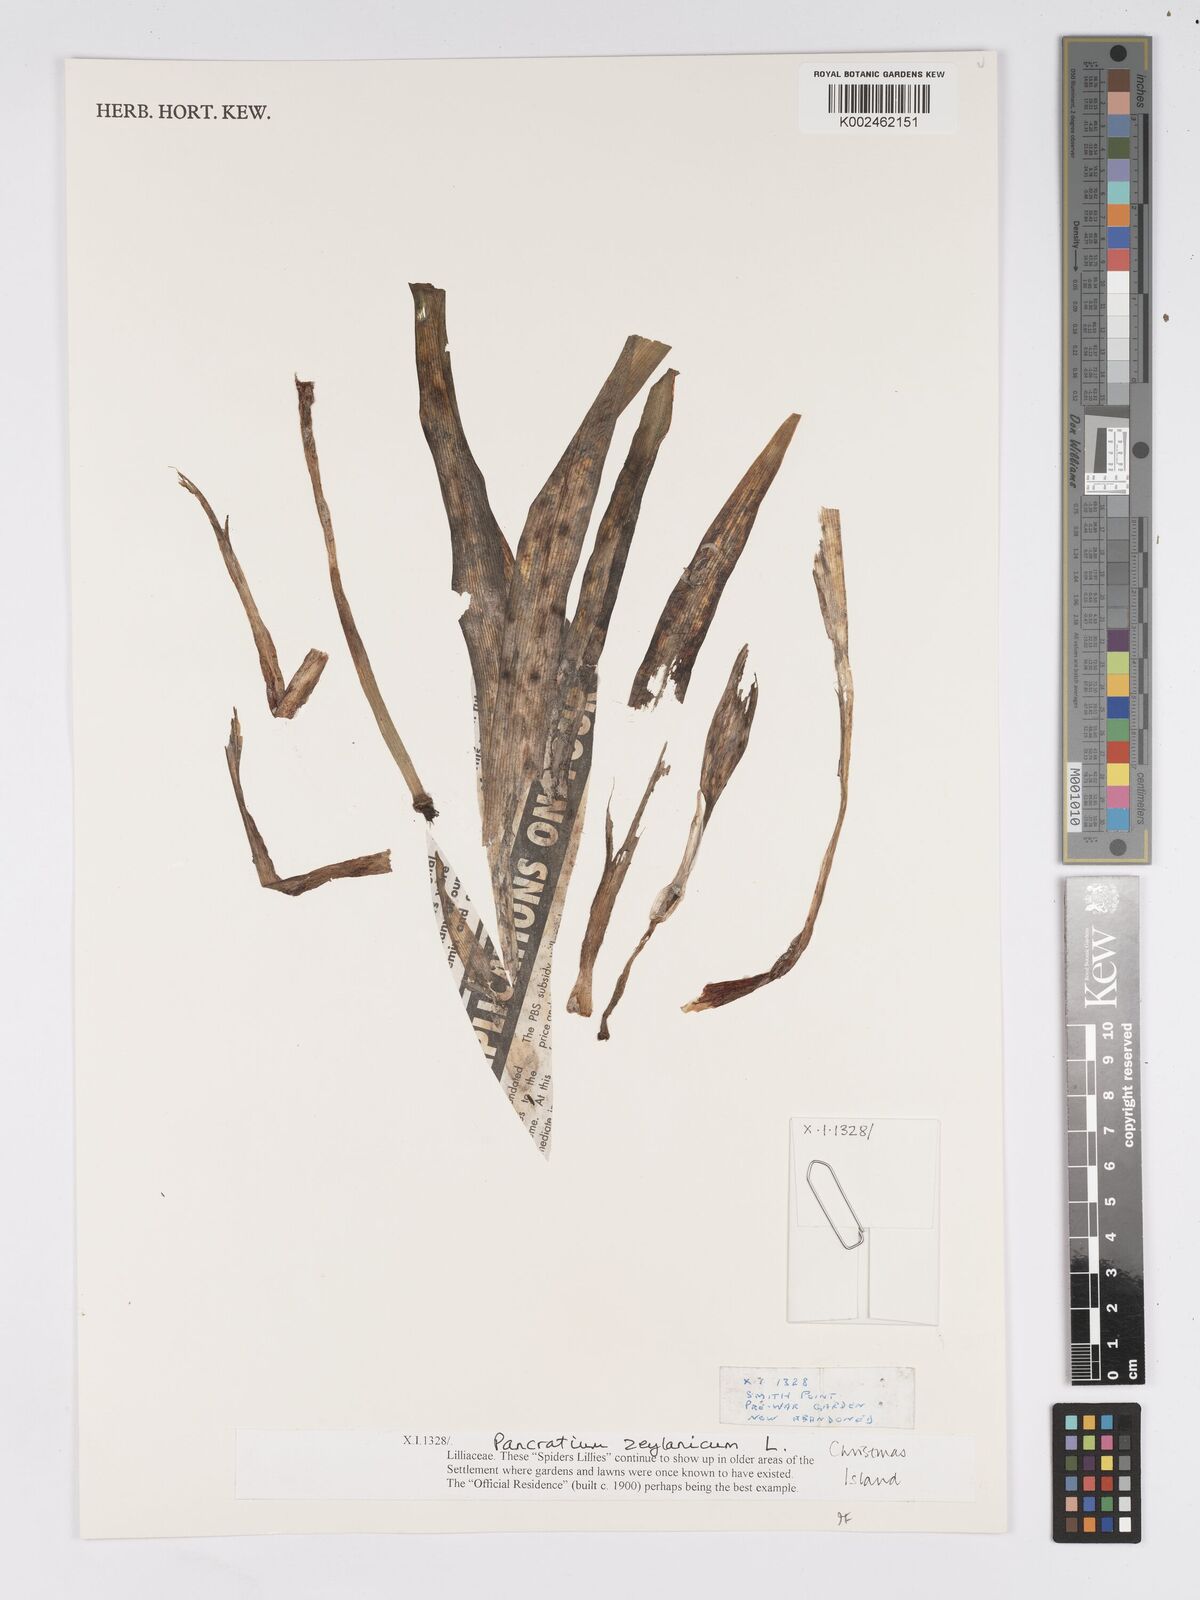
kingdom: Plantae
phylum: Tracheophyta
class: Liliopsida
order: Asparagales
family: Amaryllidaceae
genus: Pancratium
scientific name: Pancratium zeylanicum
